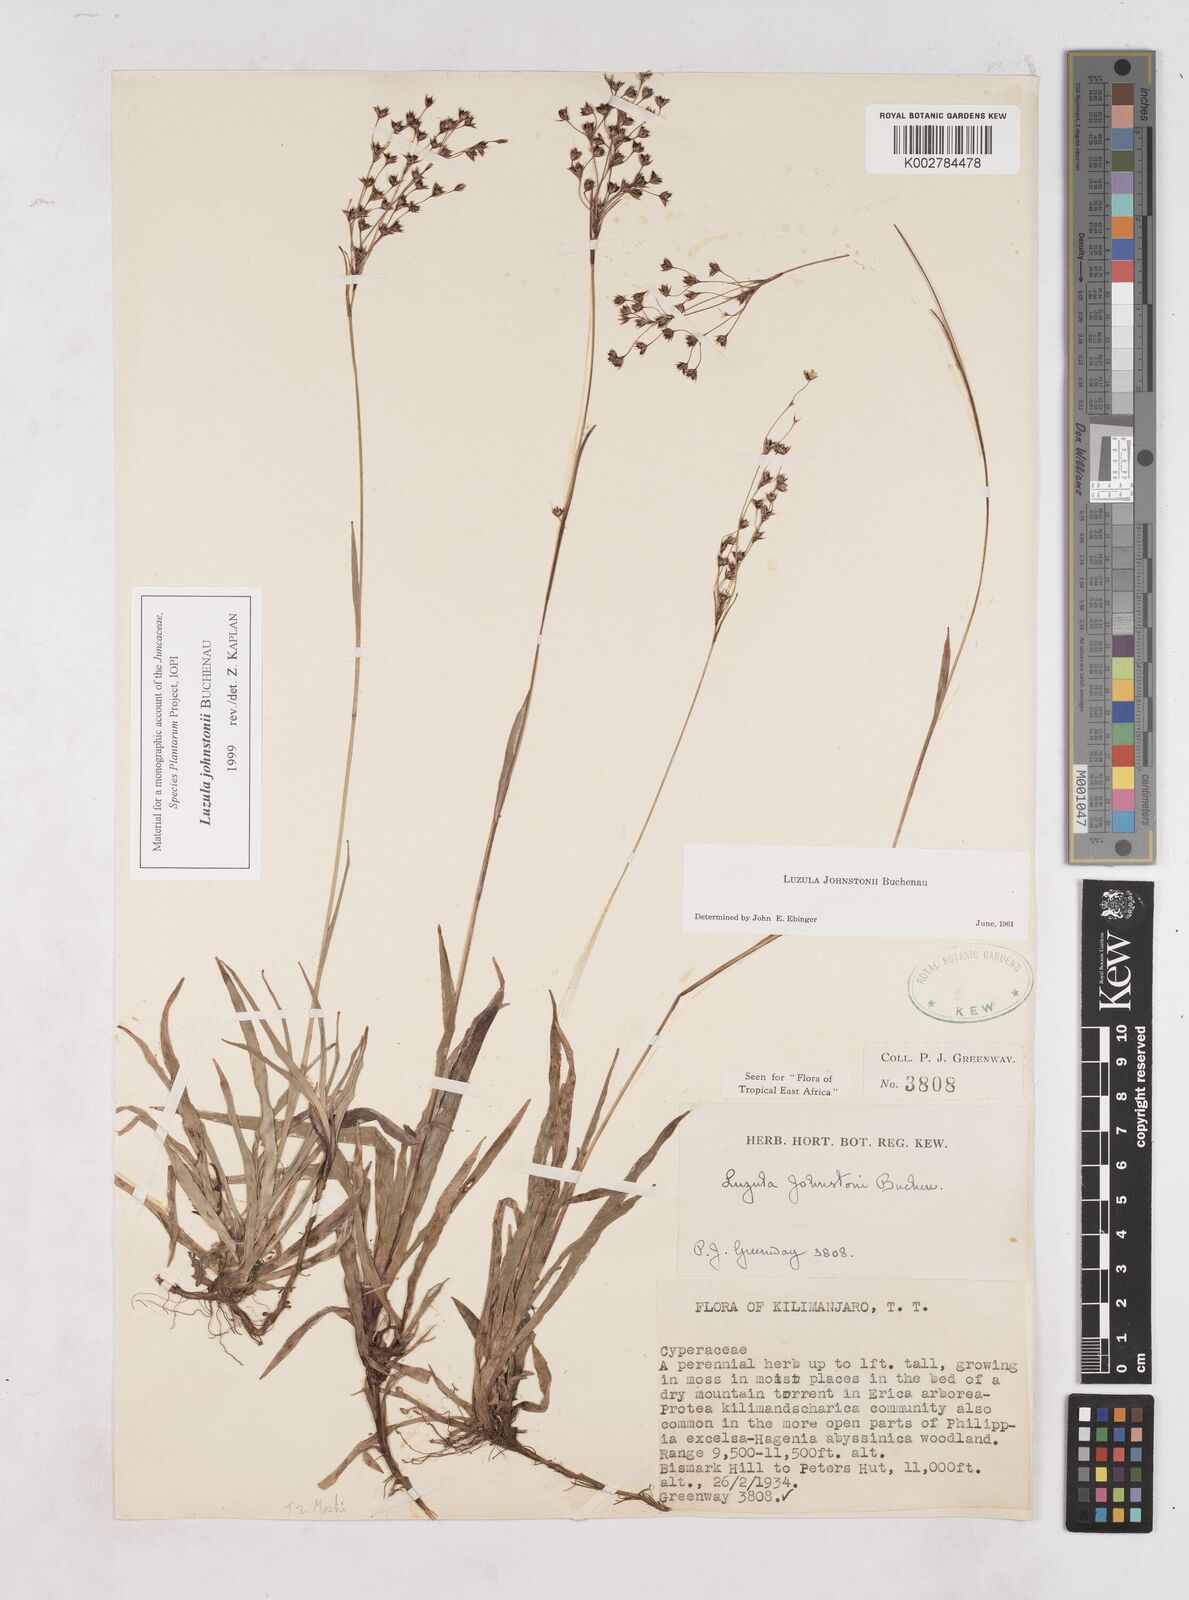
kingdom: Plantae
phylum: Tracheophyta
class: Liliopsida
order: Poales
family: Juncaceae
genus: Luzula
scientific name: Luzula johnstonii
